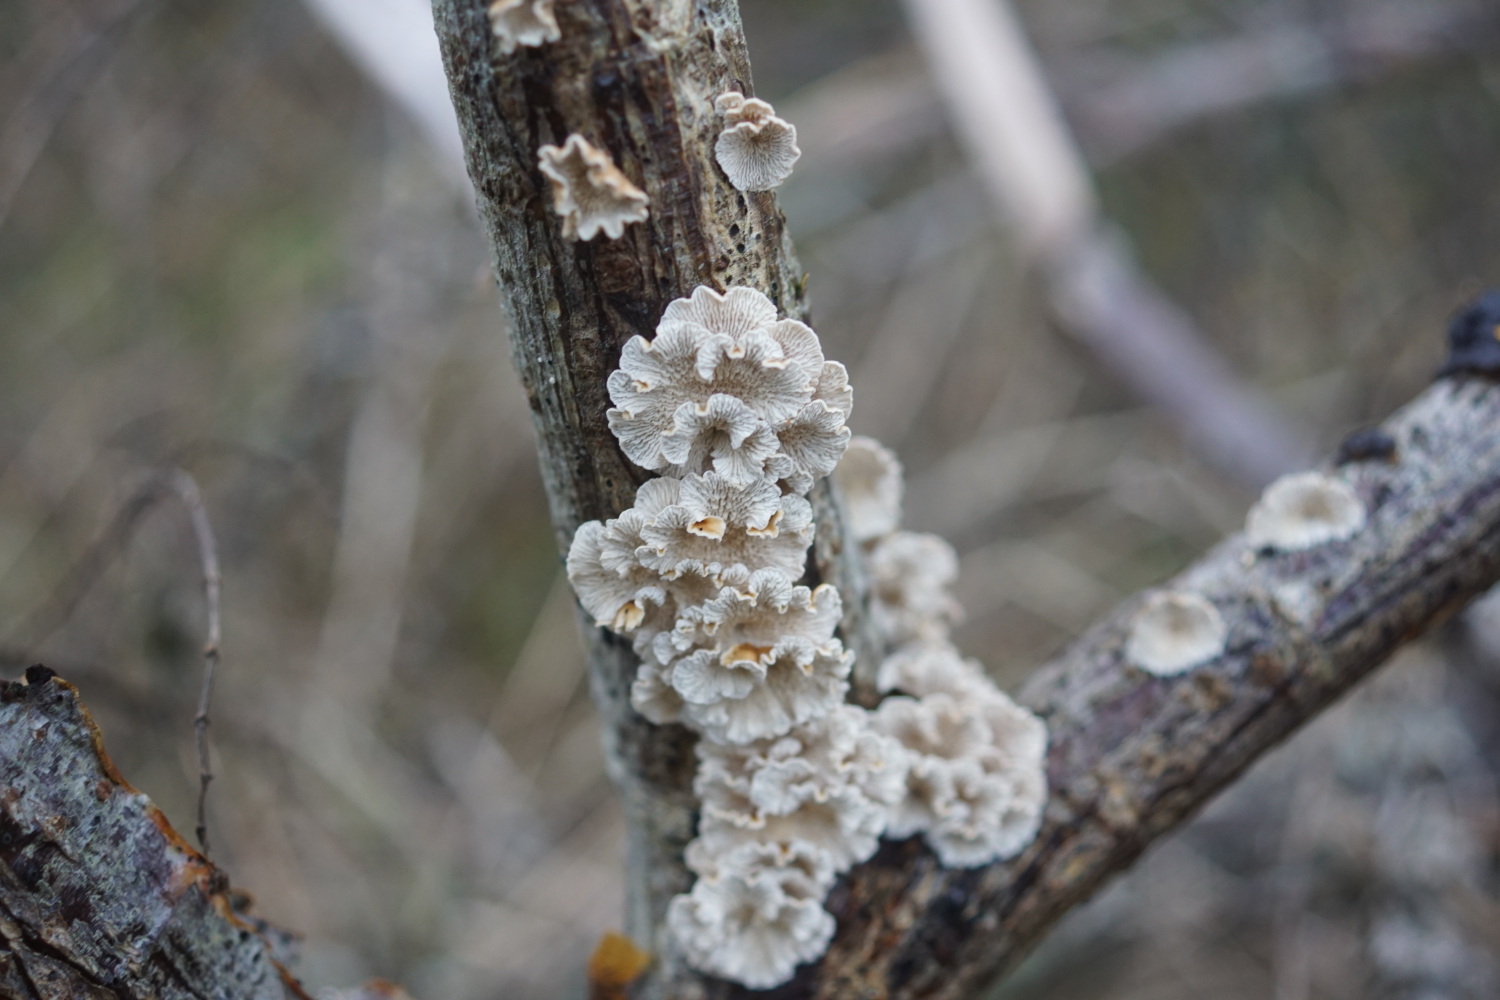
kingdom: Fungi
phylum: Basidiomycota
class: Agaricomycetes
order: Amylocorticiales
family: Amylocorticiaceae
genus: Plicaturopsis
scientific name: Plicaturopsis crispa
